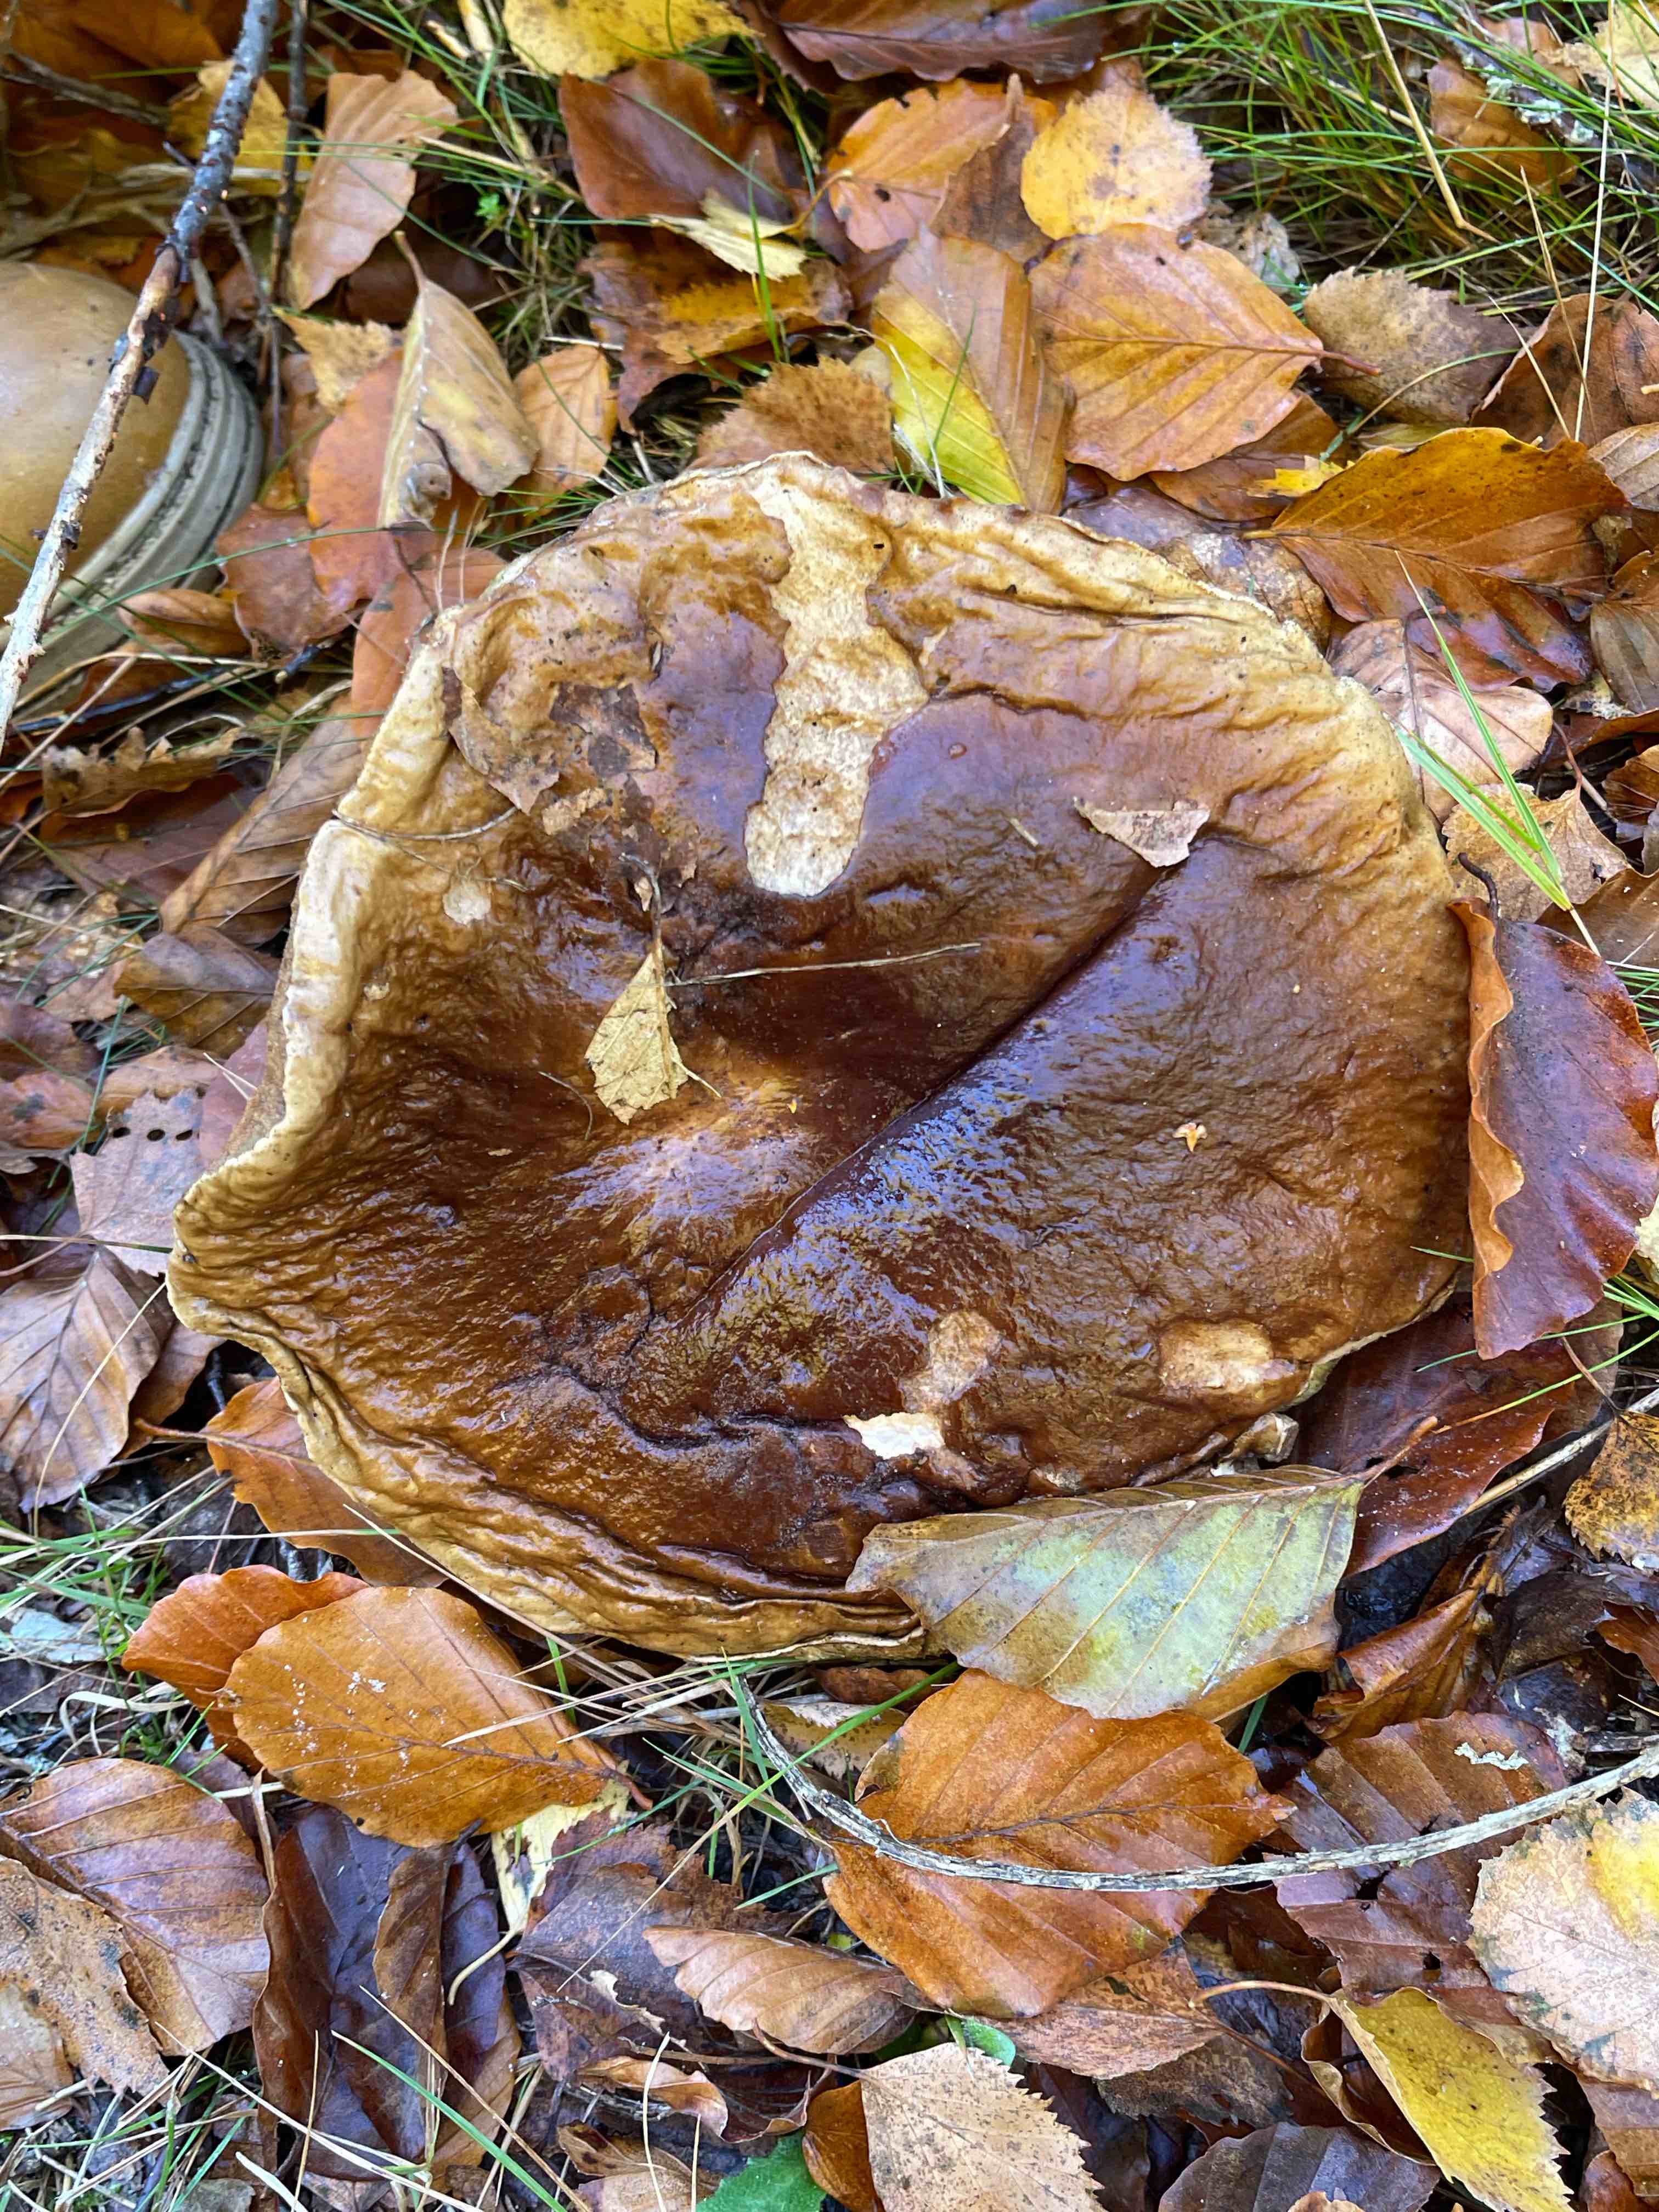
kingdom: Fungi
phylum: Basidiomycota
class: Agaricomycetes
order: Boletales
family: Boletaceae
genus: Boletus
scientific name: Boletus edulis
